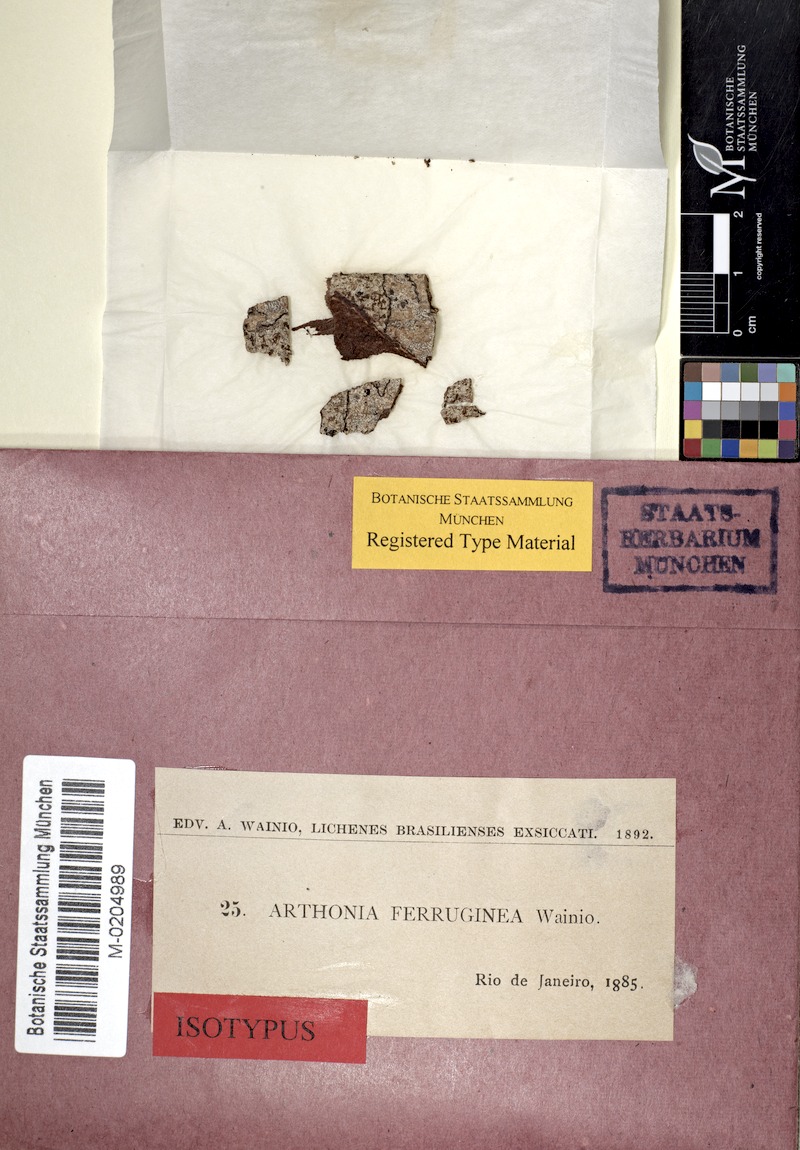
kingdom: Fungi
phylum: Ascomycota
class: Arthoniomycetes
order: Arthoniales
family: Arthoniaceae
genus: Synarthonia
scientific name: Synarthonia ferruginea
